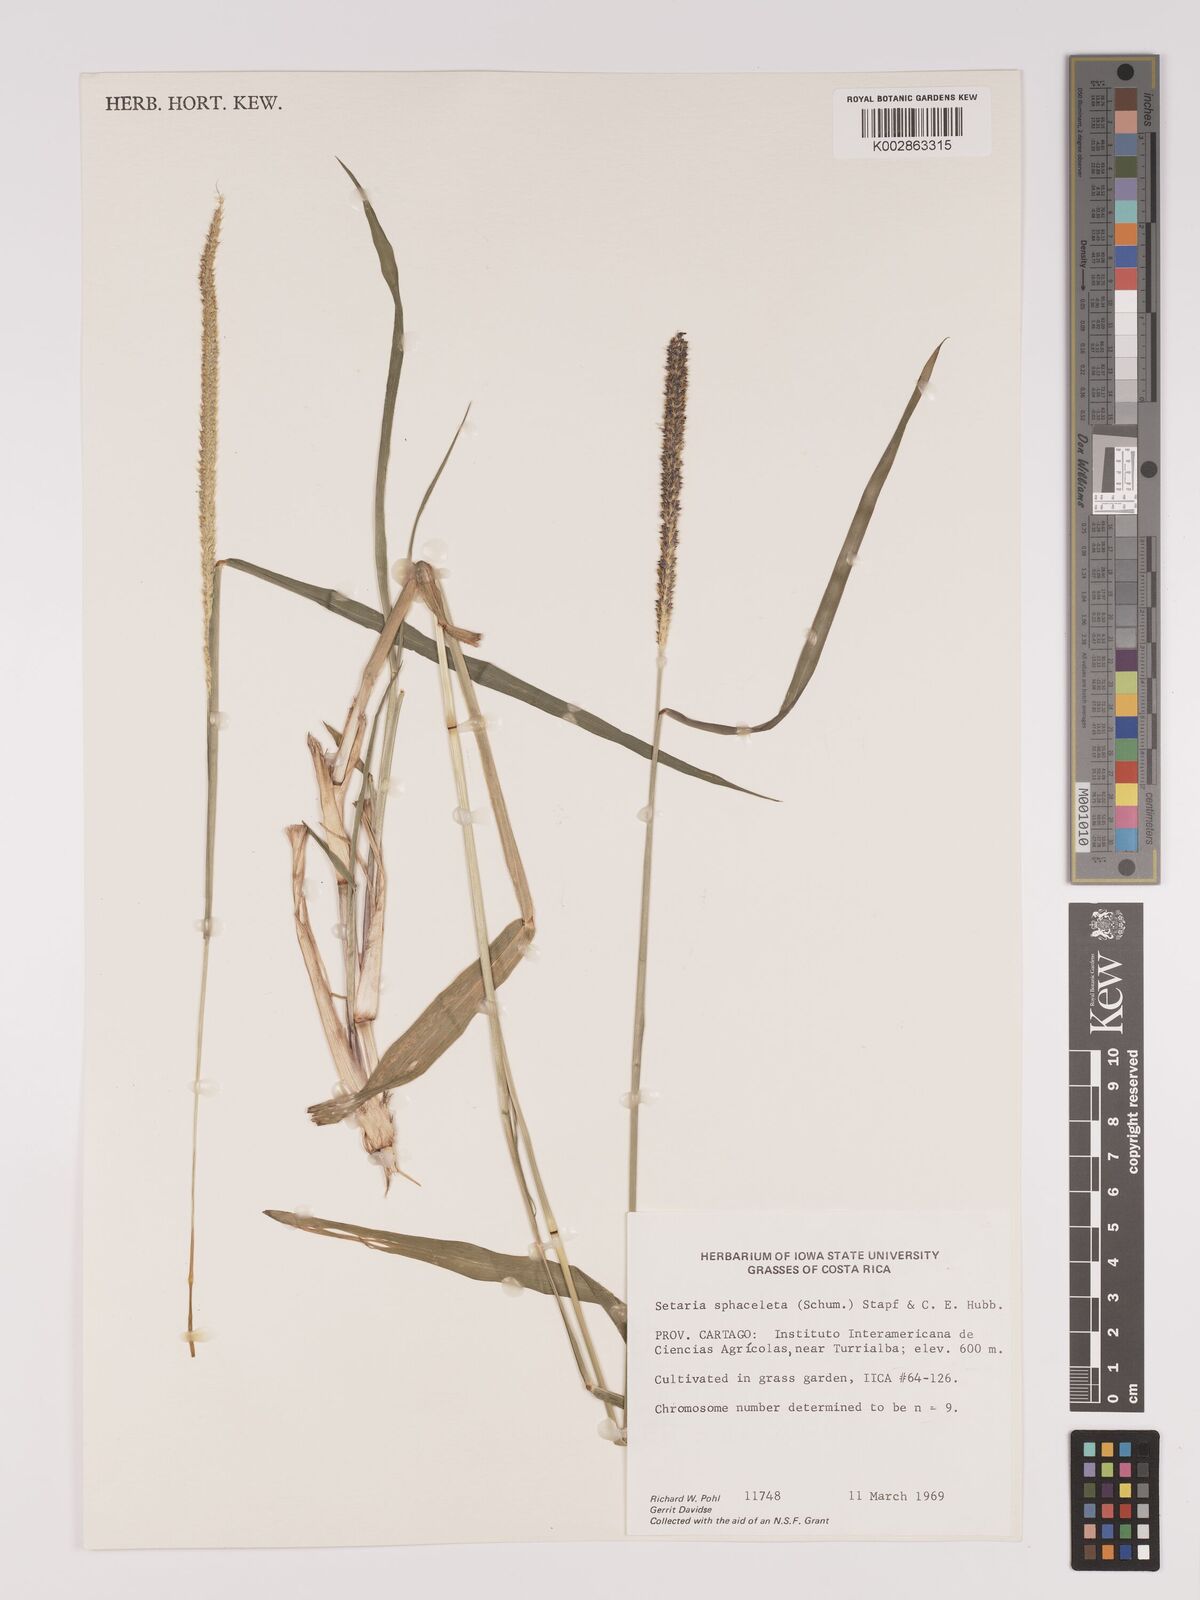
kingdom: Plantae
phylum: Tracheophyta
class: Liliopsida
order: Poales
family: Poaceae
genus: Setaria
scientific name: Setaria sphacelata
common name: African bristlegrass
